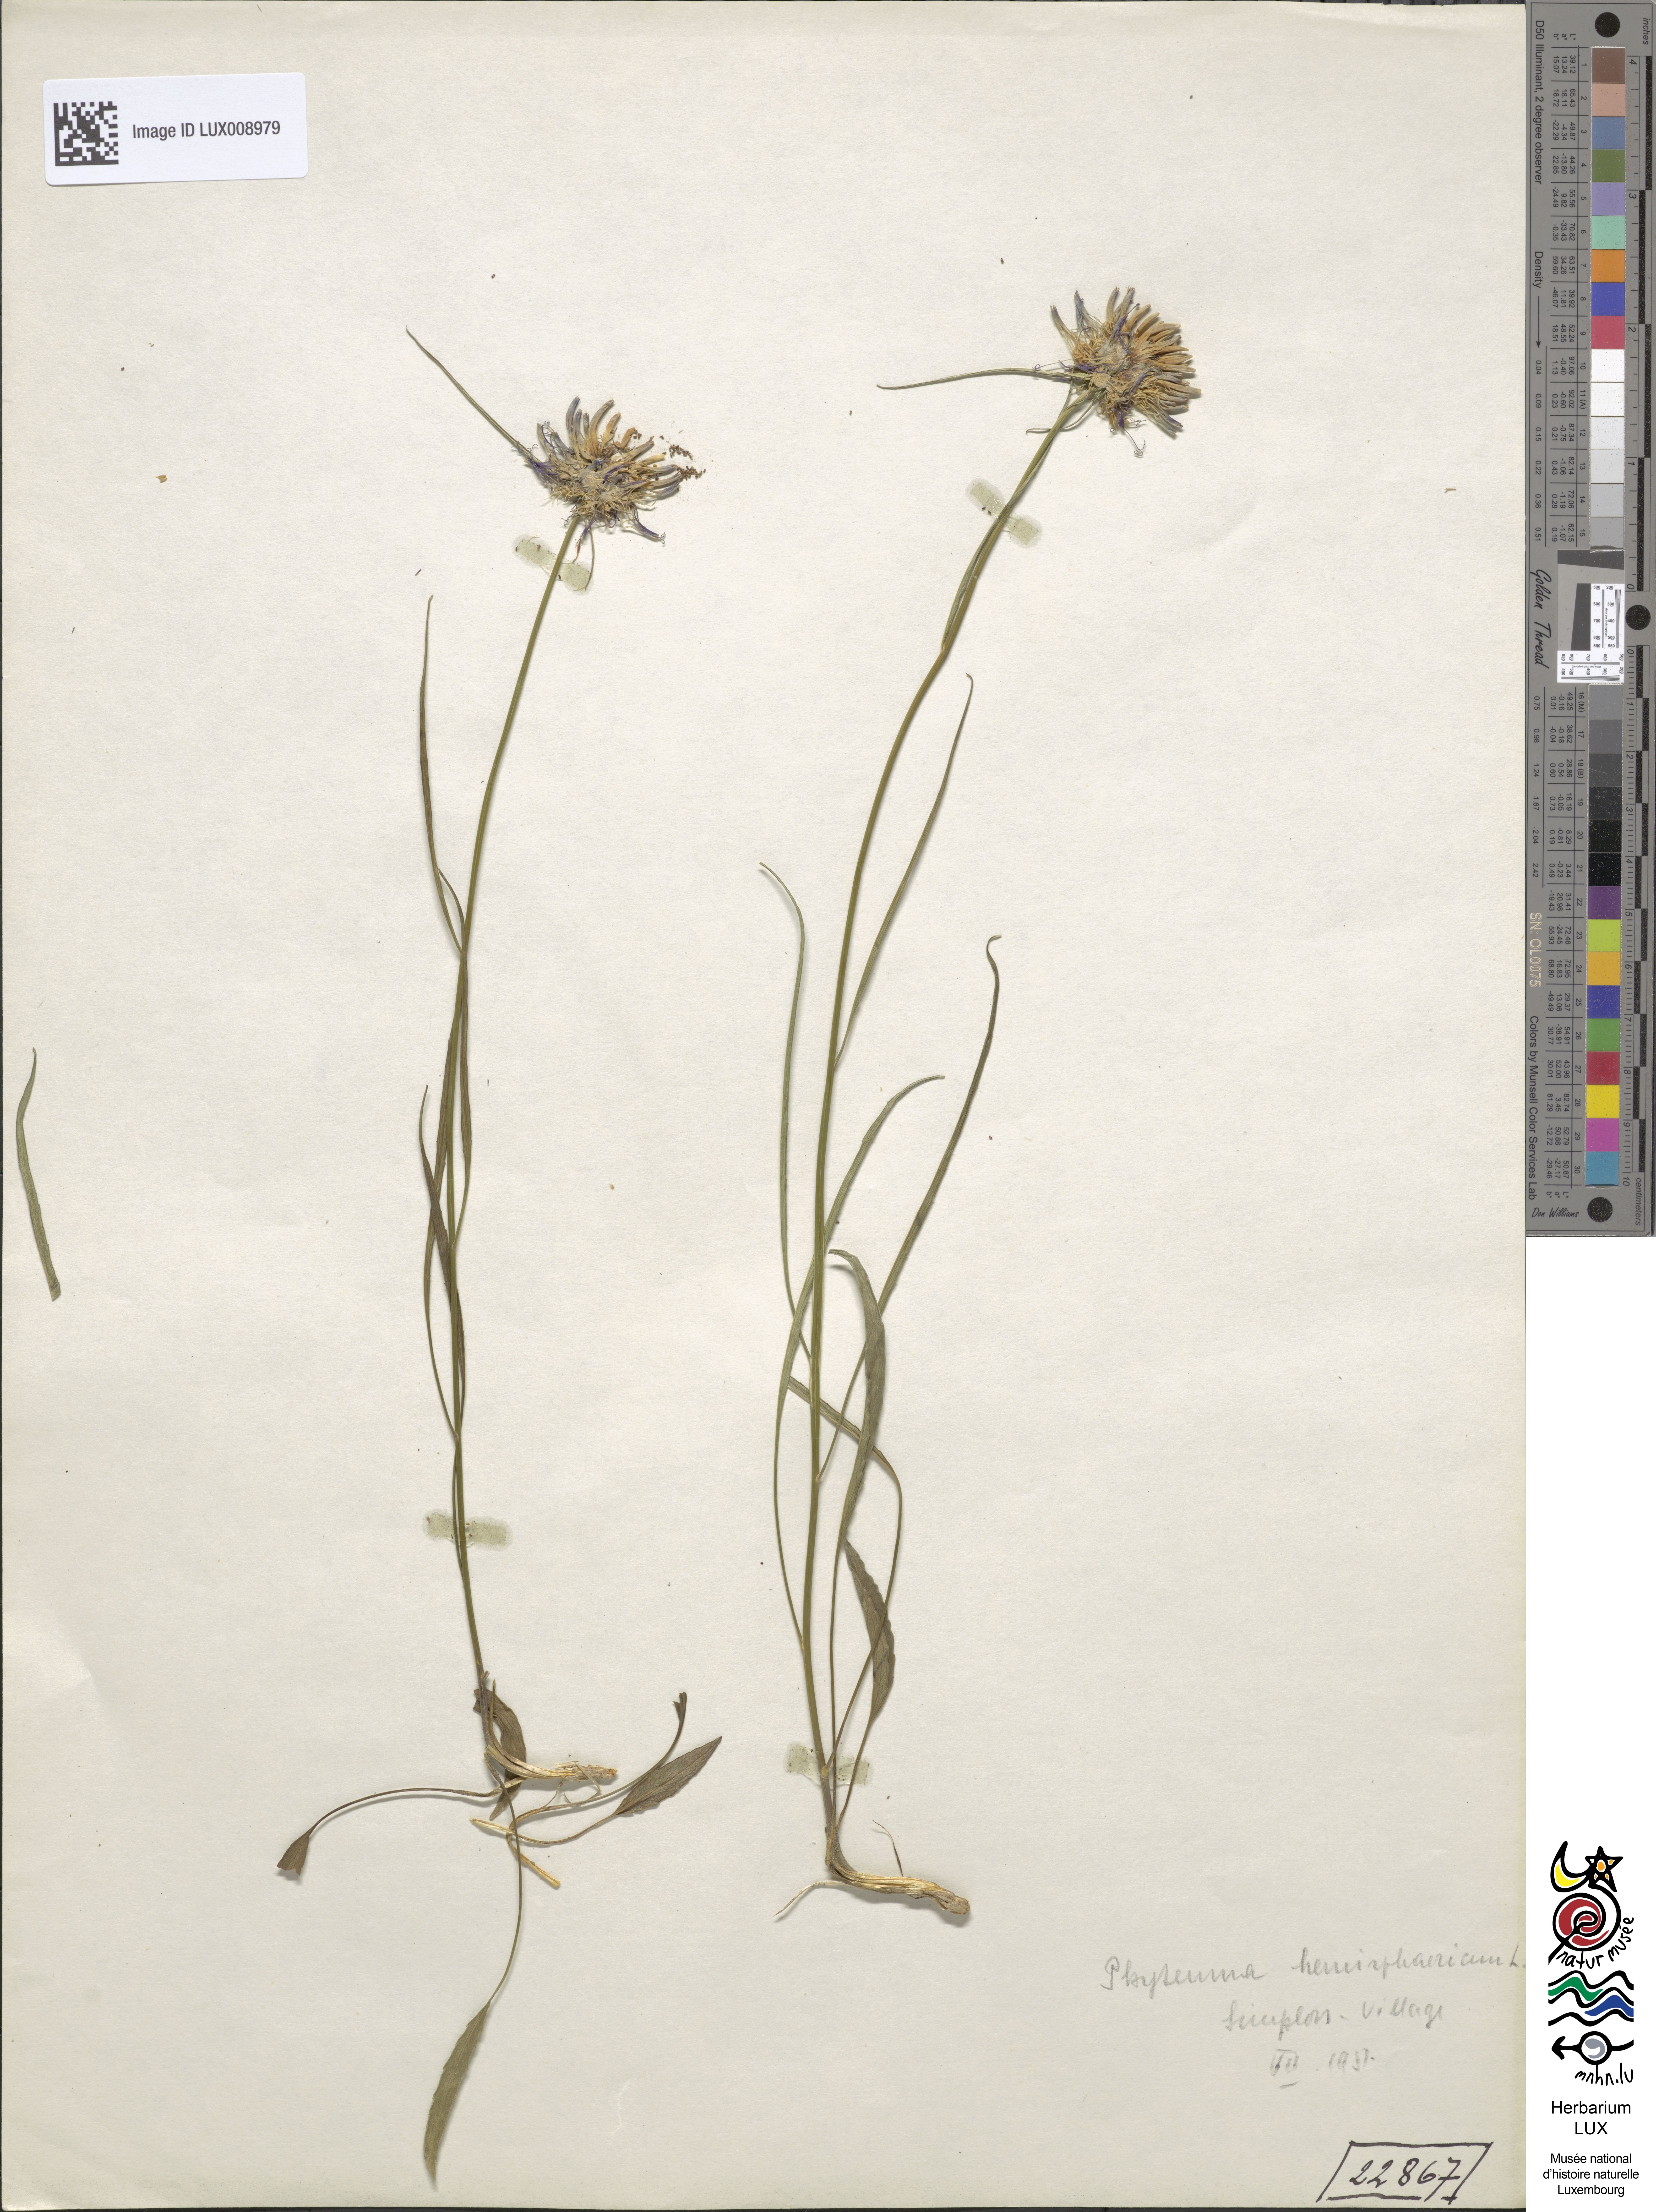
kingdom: Plantae
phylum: Tracheophyta
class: Magnoliopsida
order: Asterales
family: Campanulaceae
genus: Phyteuma
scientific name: Phyteuma hemisphaericum
